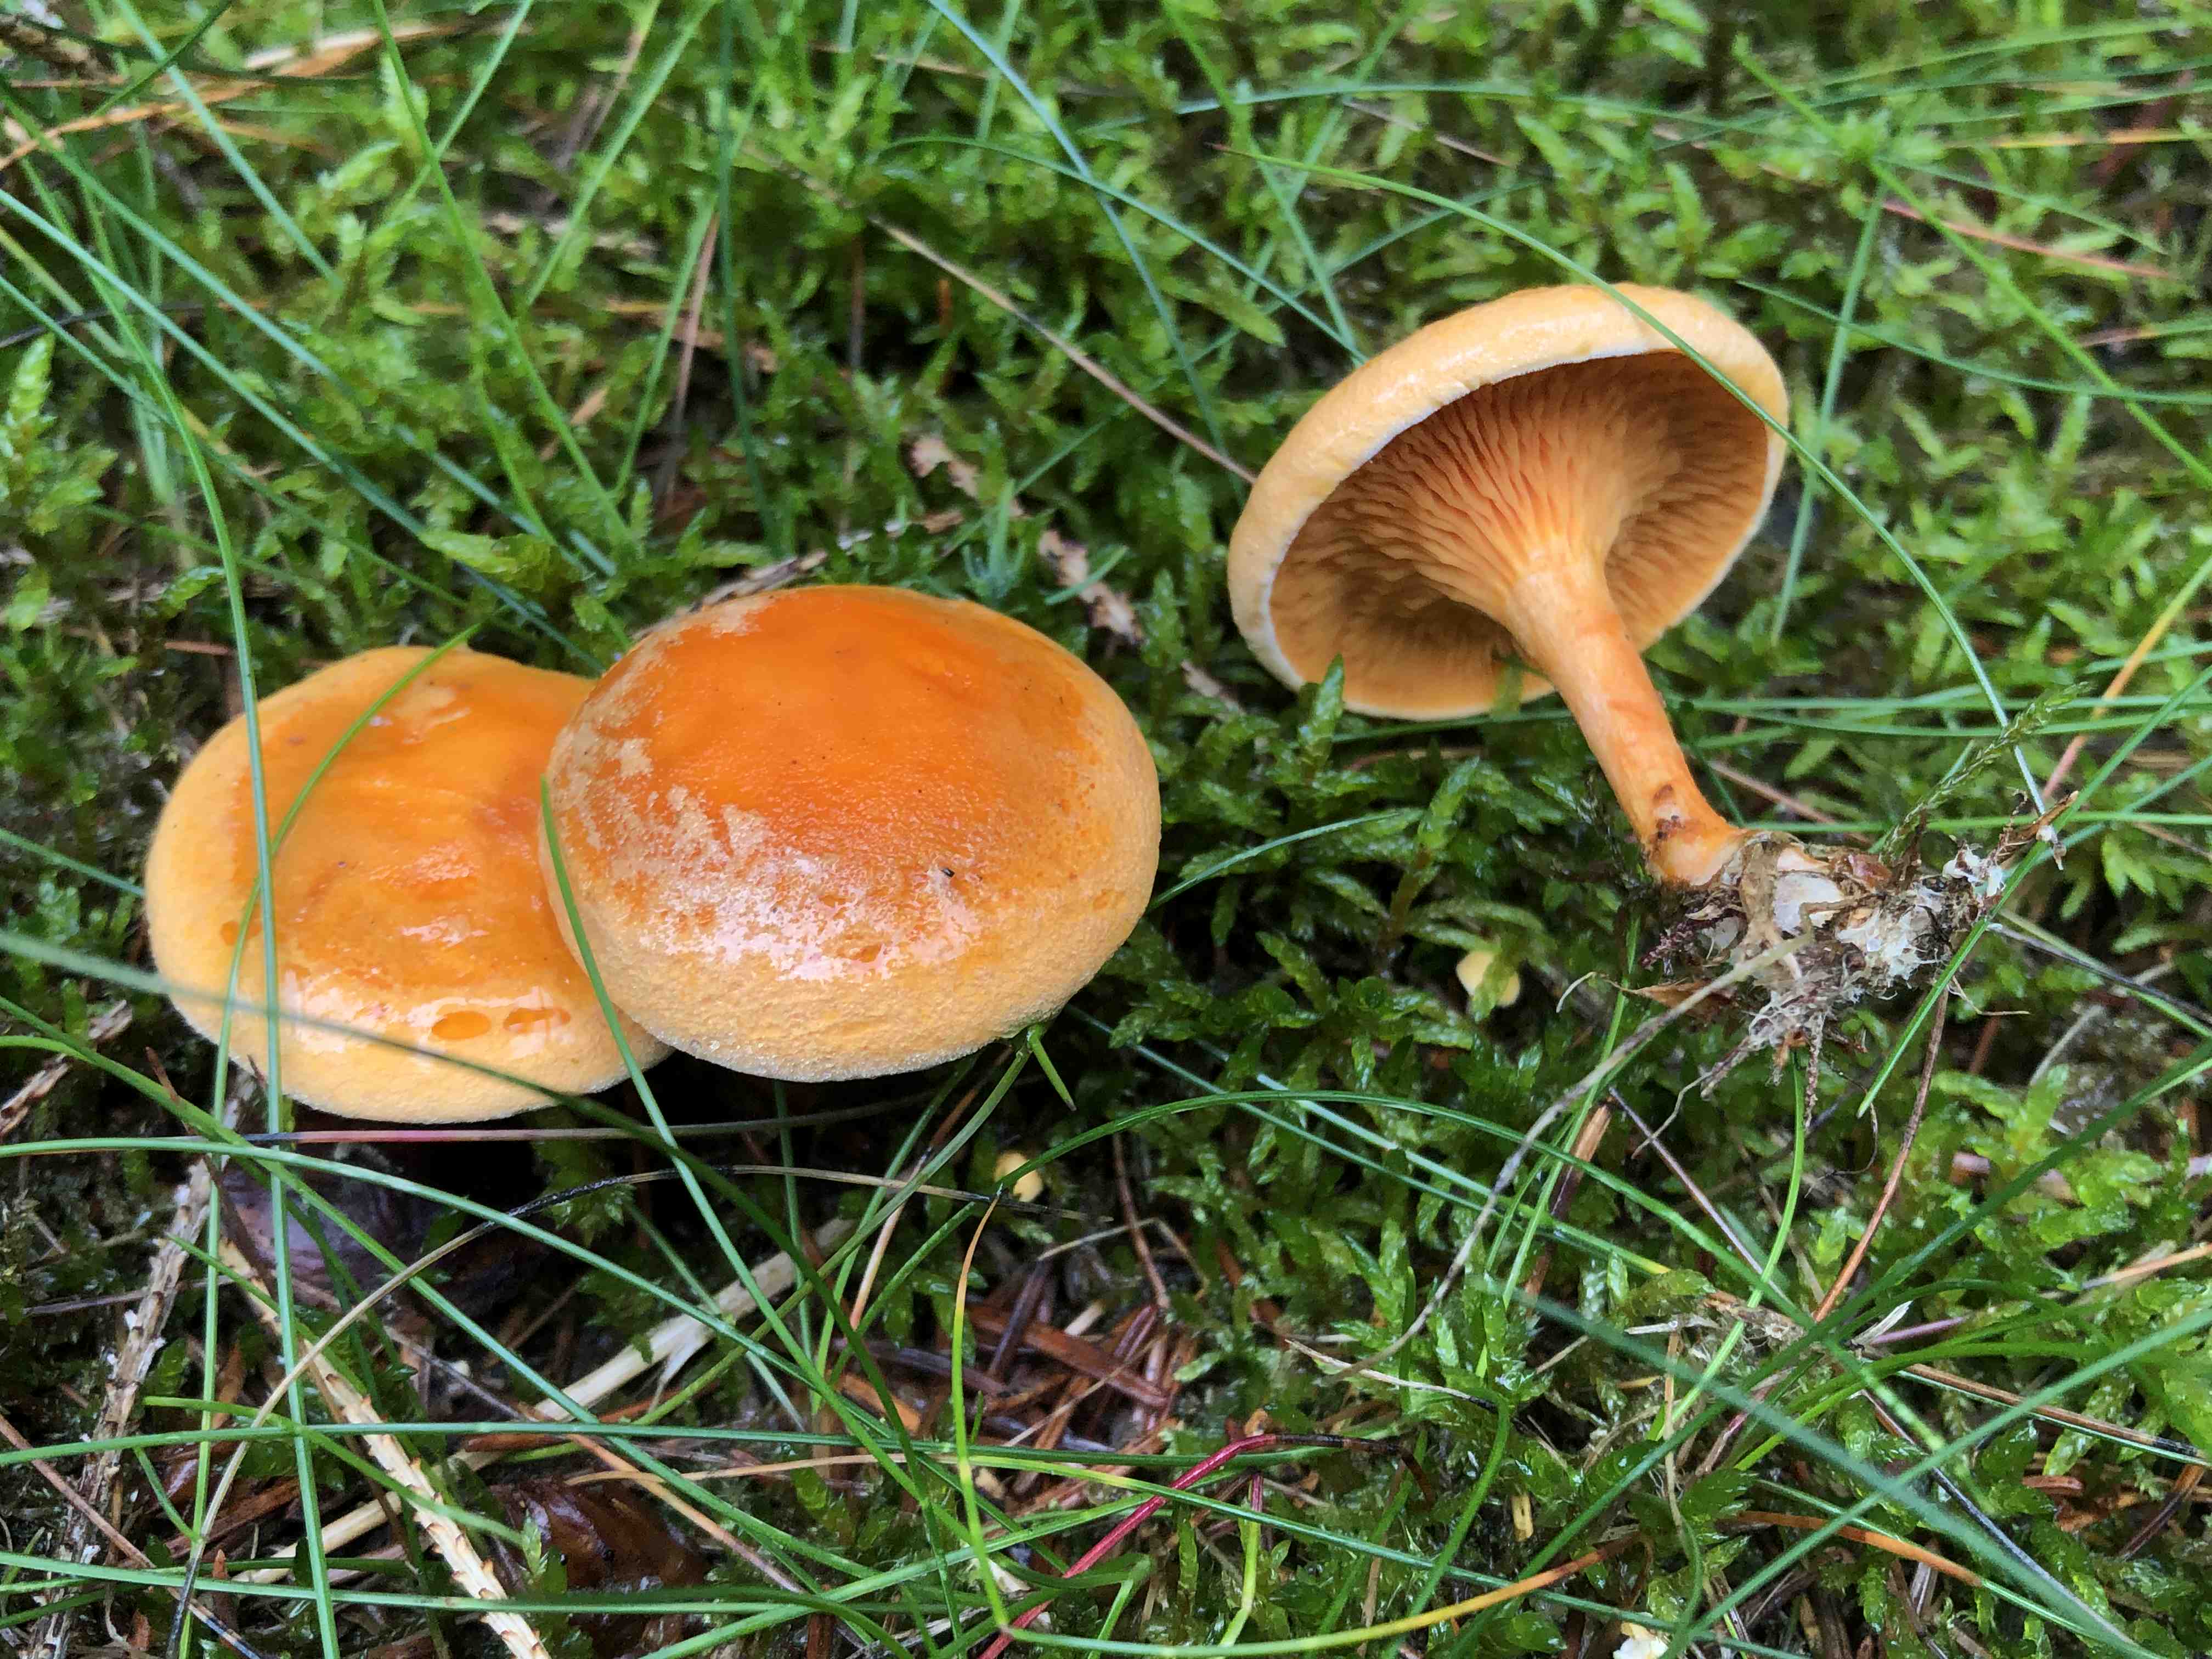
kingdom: Fungi
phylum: Basidiomycota
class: Agaricomycetes
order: Boletales
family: Hygrophoropsidaceae
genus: Hygrophoropsis
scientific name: Hygrophoropsis aurantiaca
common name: almindelig orangekantarel
